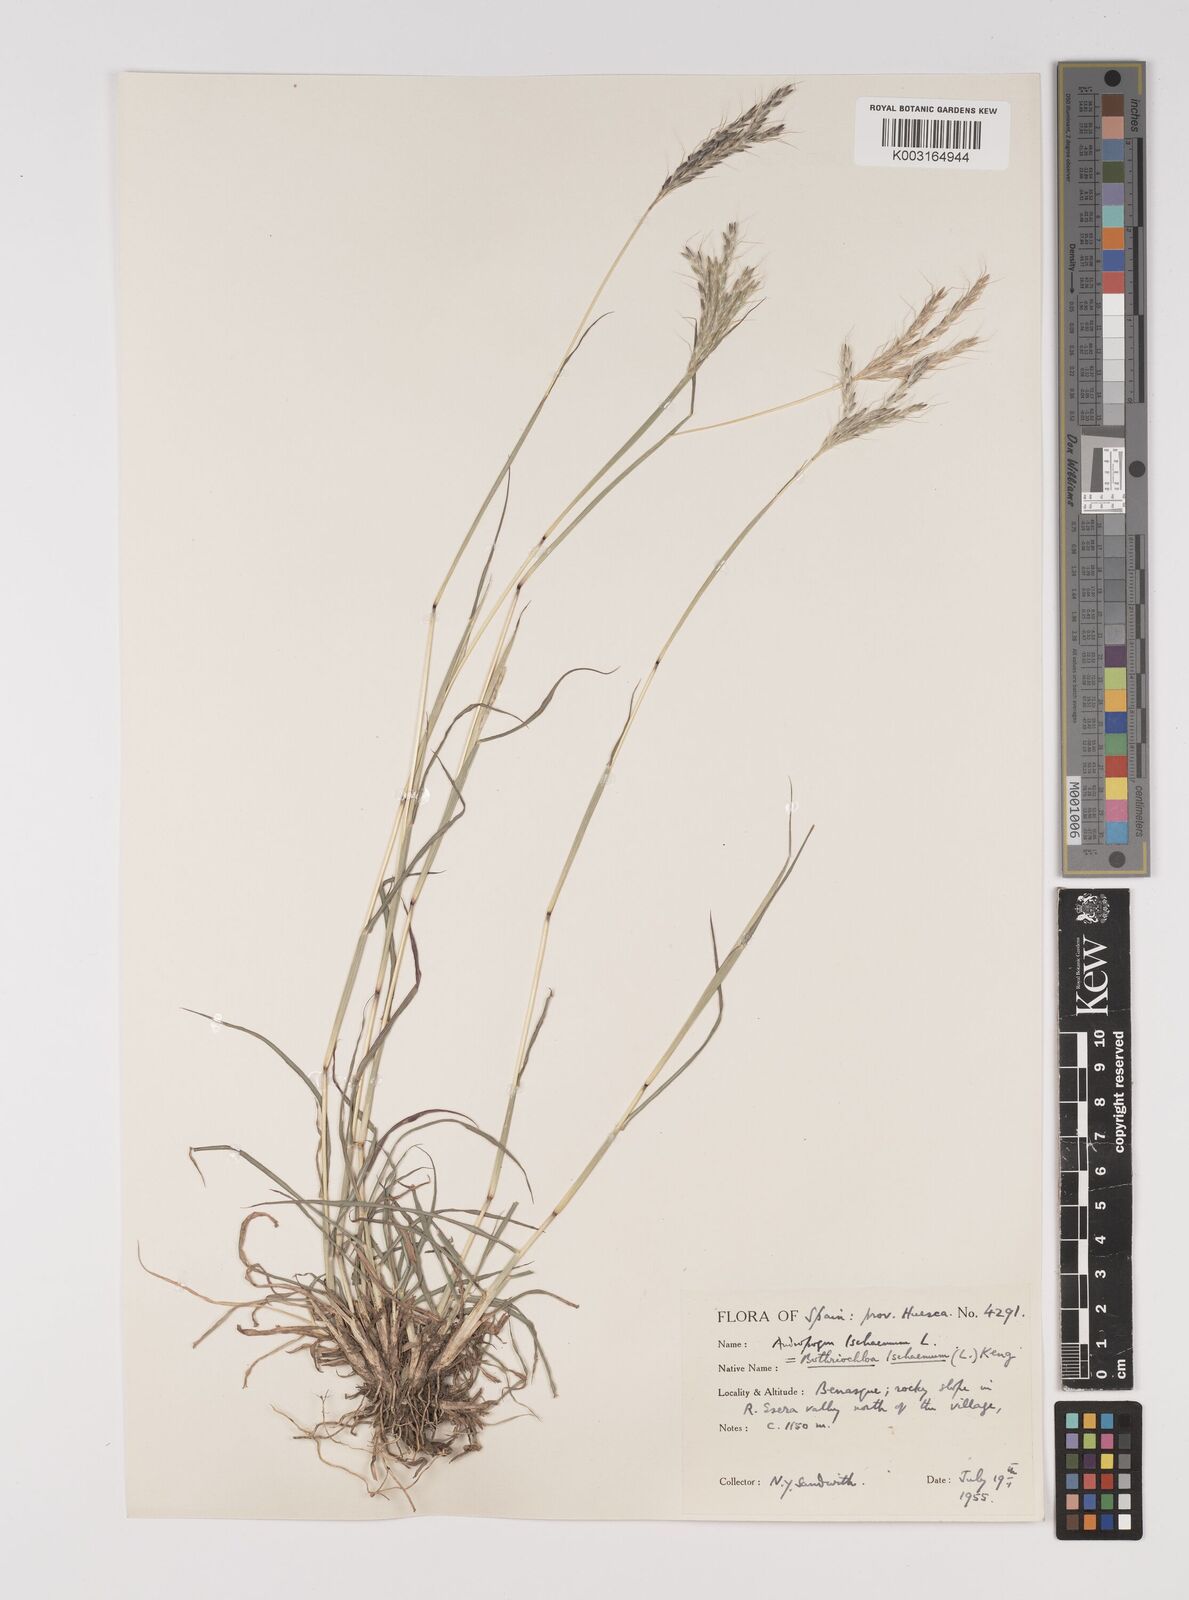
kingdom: Plantae
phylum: Tracheophyta
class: Liliopsida
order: Poales
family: Poaceae
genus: Bothriochloa
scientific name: Bothriochloa ischaemum
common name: Yellow bluestem
